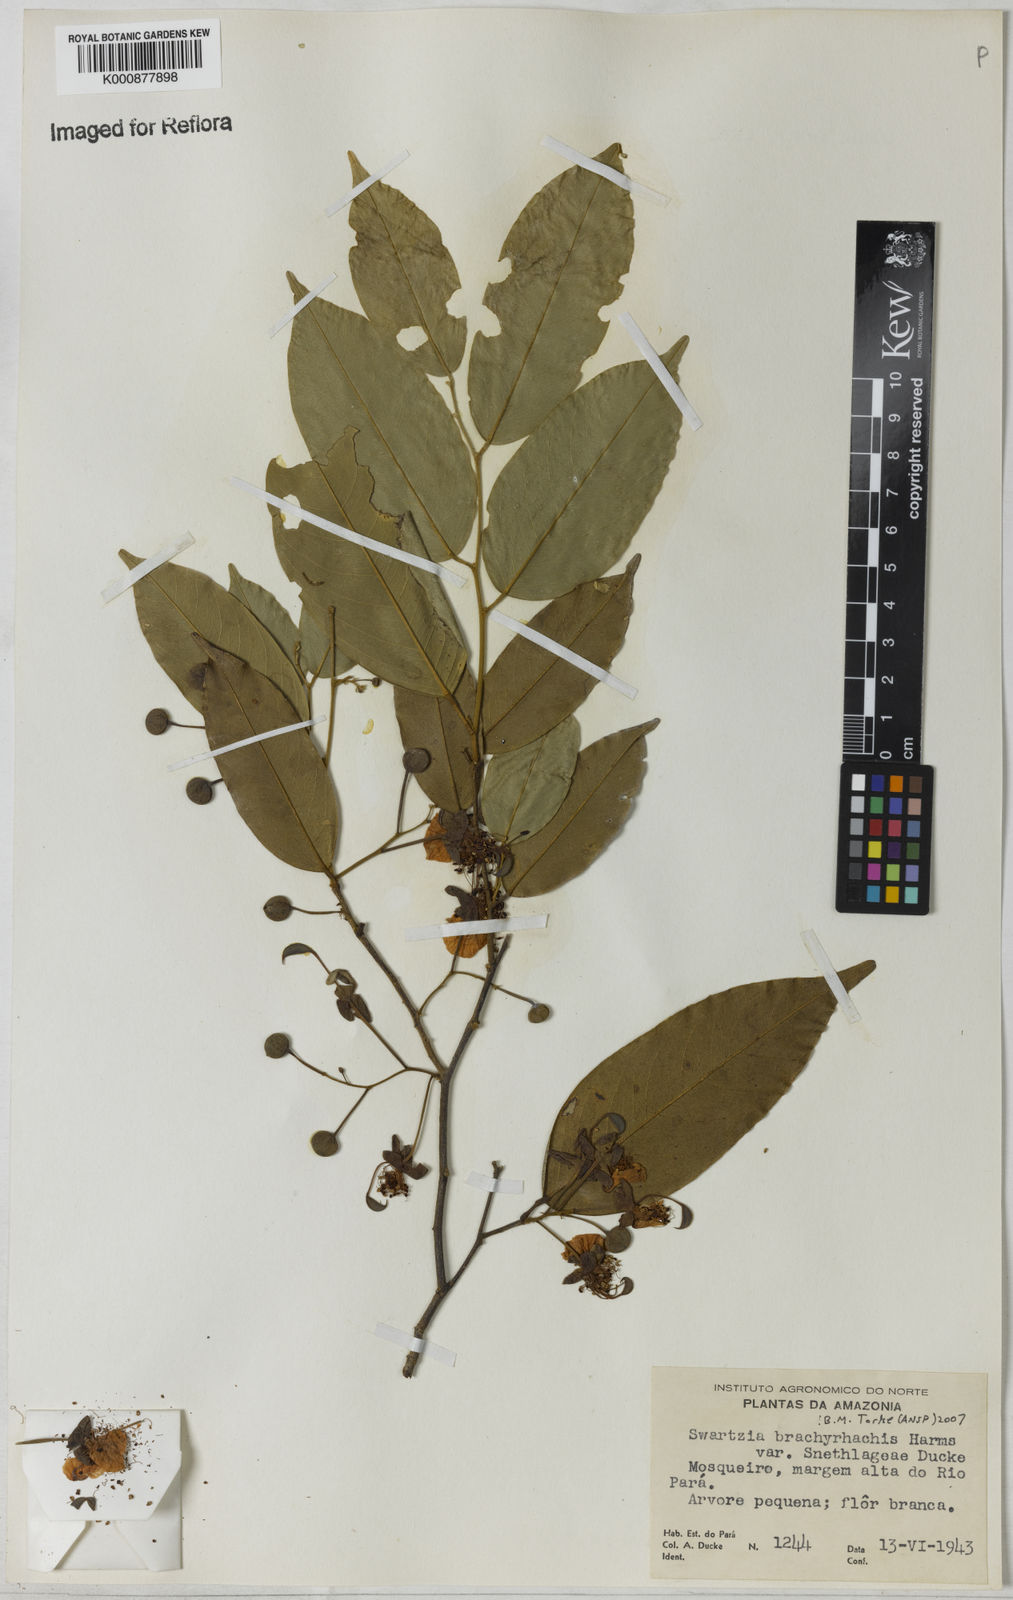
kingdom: Plantae
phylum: Tracheophyta
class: Magnoliopsida
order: Fabales
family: Fabaceae
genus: Swartzia
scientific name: Swartzia
